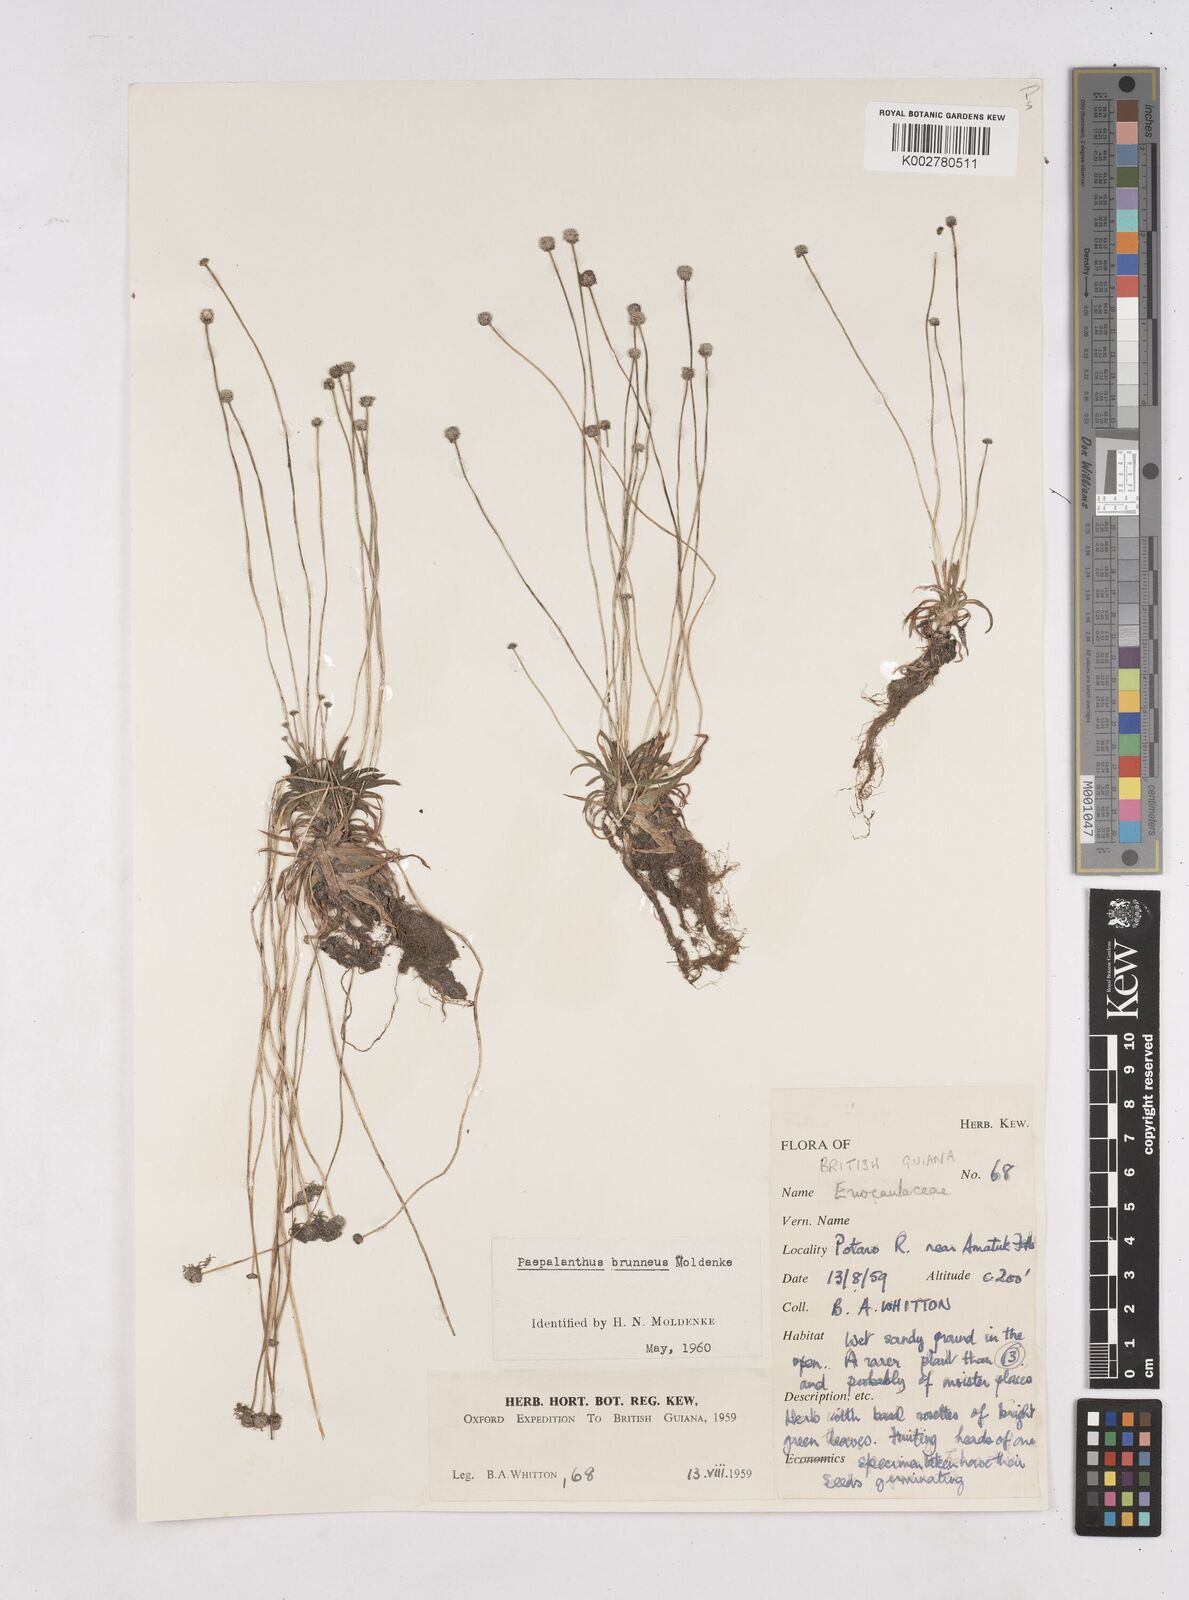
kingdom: Plantae
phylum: Tracheophyta
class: Liliopsida
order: Poales
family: Eriocaulaceae
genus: Paepalanthus
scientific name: Paepalanthus oyapockensis
